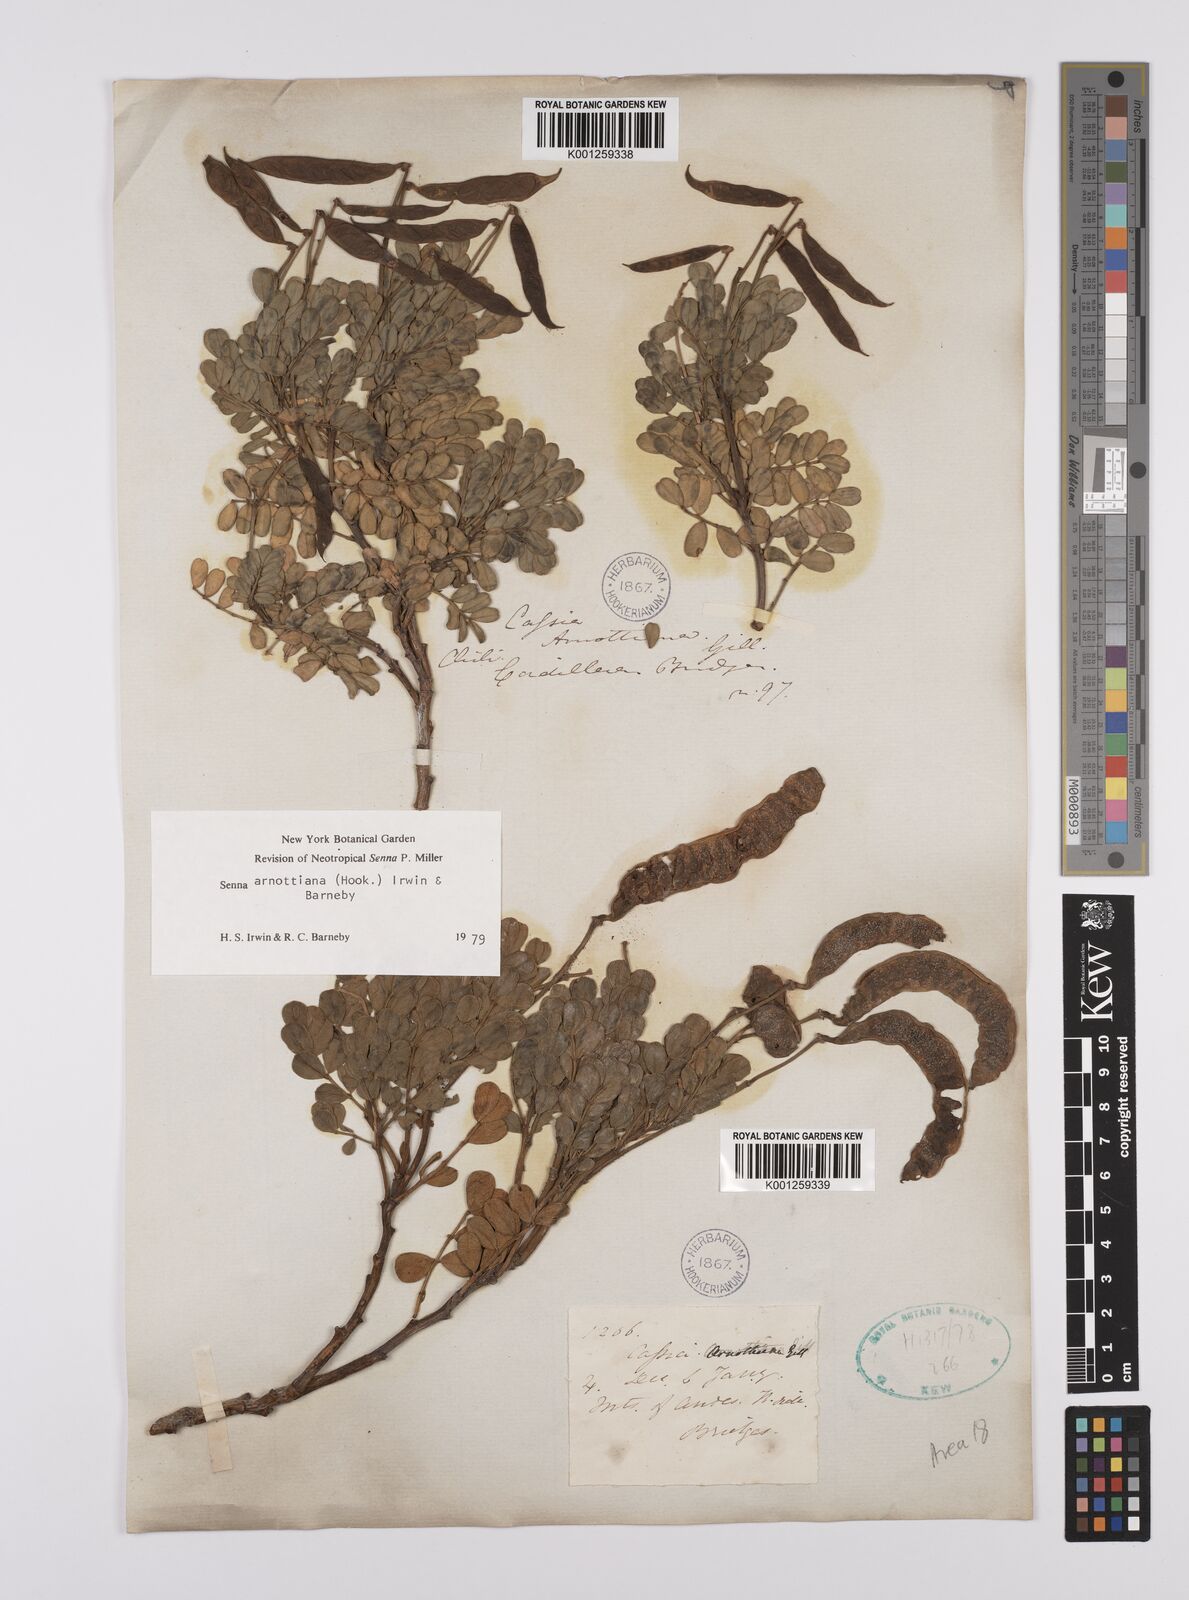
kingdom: Plantae
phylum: Tracheophyta
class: Magnoliopsida
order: Fabales
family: Fabaceae
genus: Senna
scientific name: Senna arnottiana
